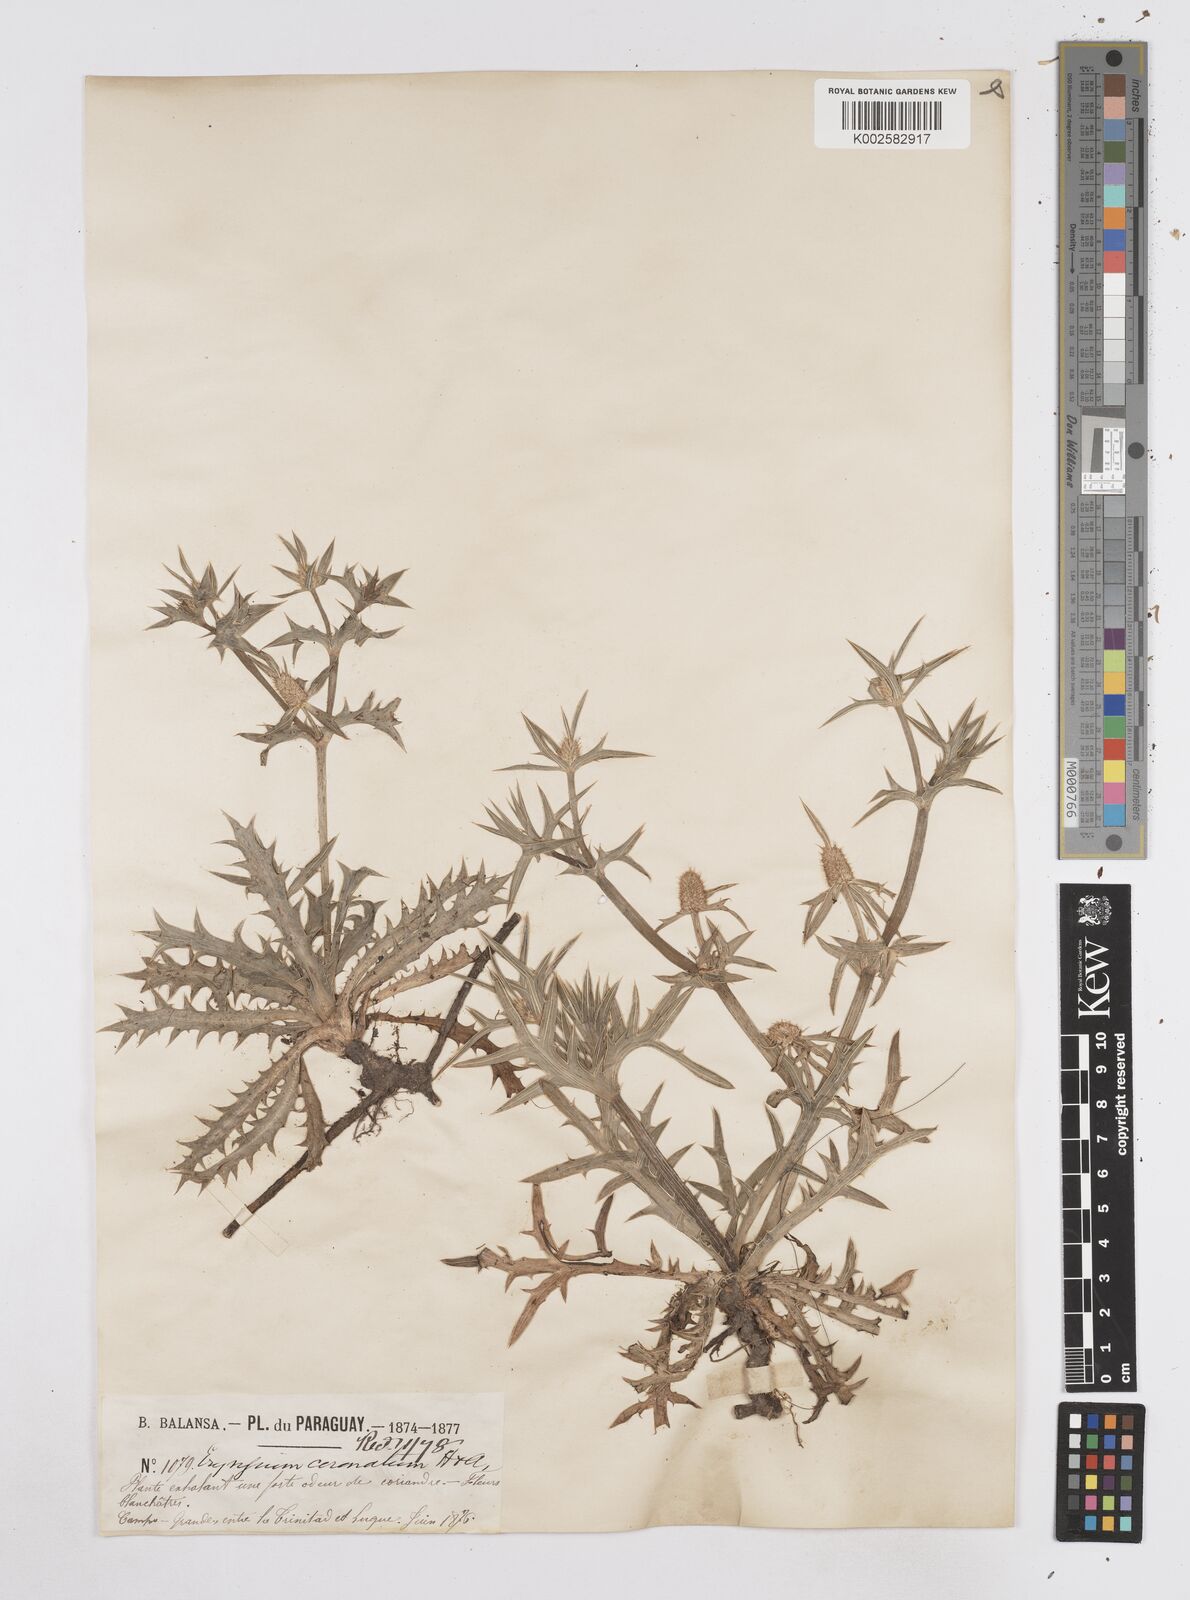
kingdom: Plantae
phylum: Tracheophyta
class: Magnoliopsida
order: Apiales
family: Apiaceae
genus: Eryngium
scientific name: Eryngium coronatum
